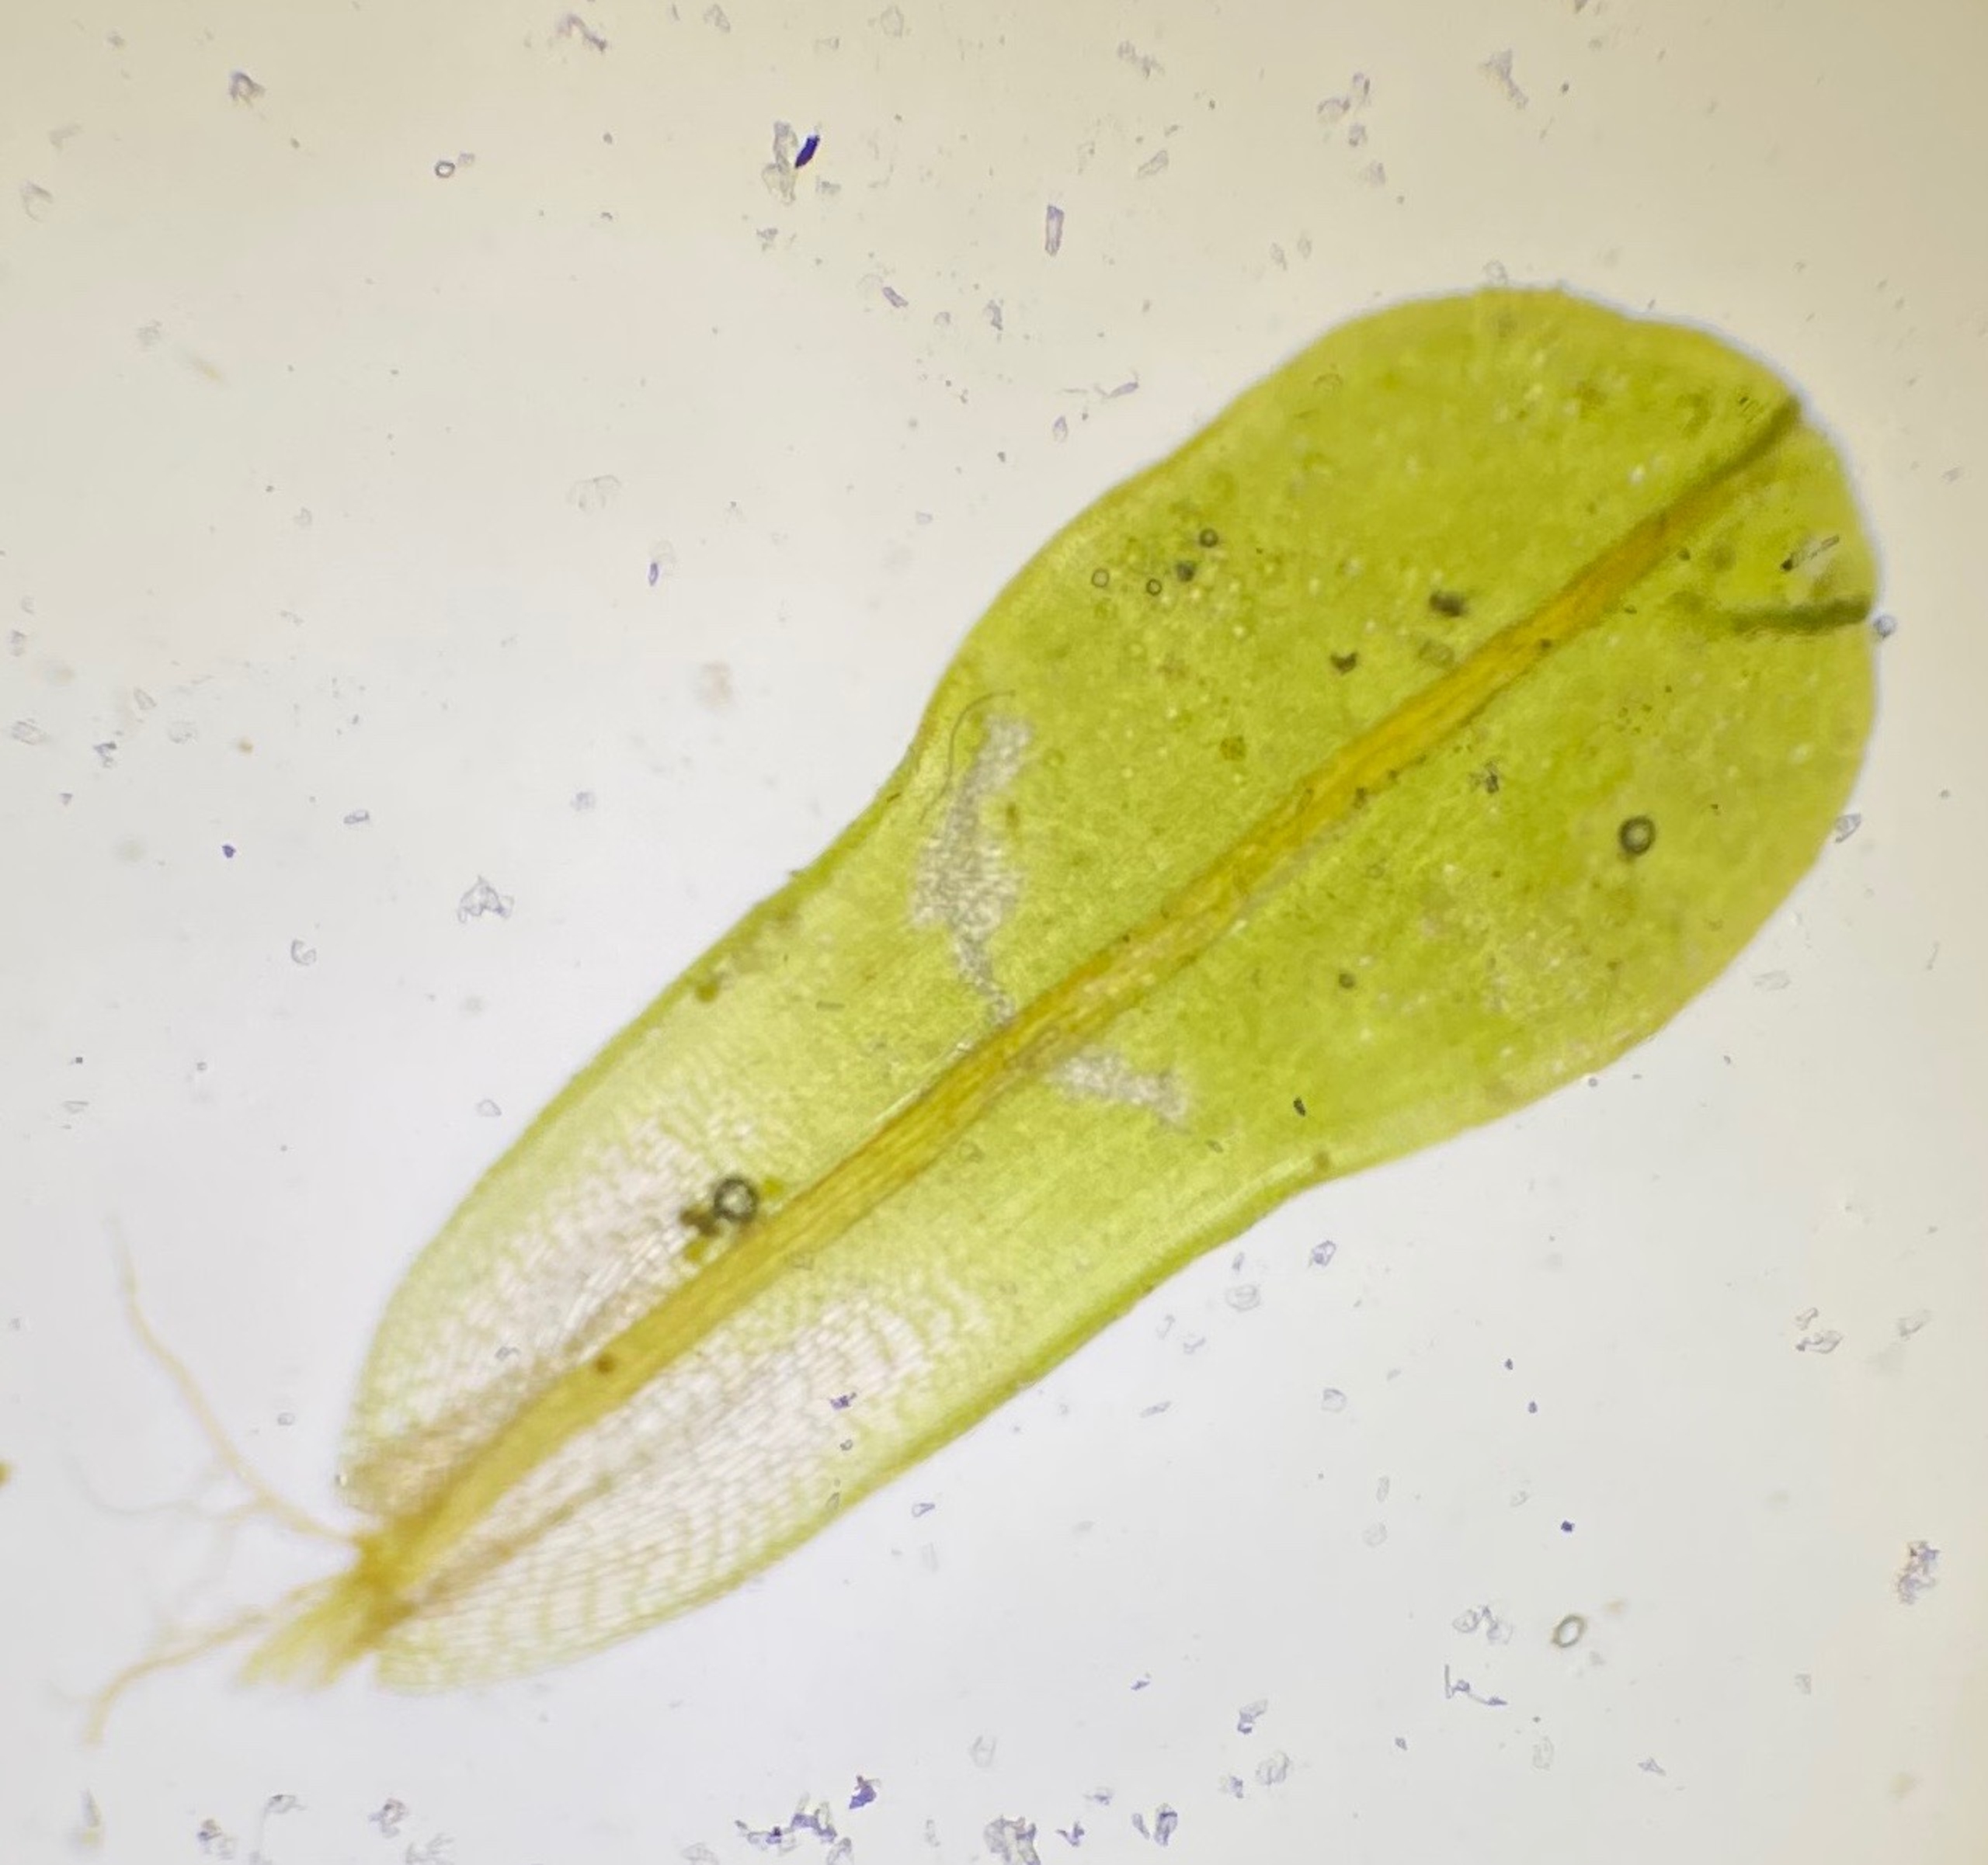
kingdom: Plantae
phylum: Bryophyta
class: Bryopsida
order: Pottiales
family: Pottiaceae
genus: Syntrichia
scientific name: Syntrichia latifolia
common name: Butbladet hårstjerne
